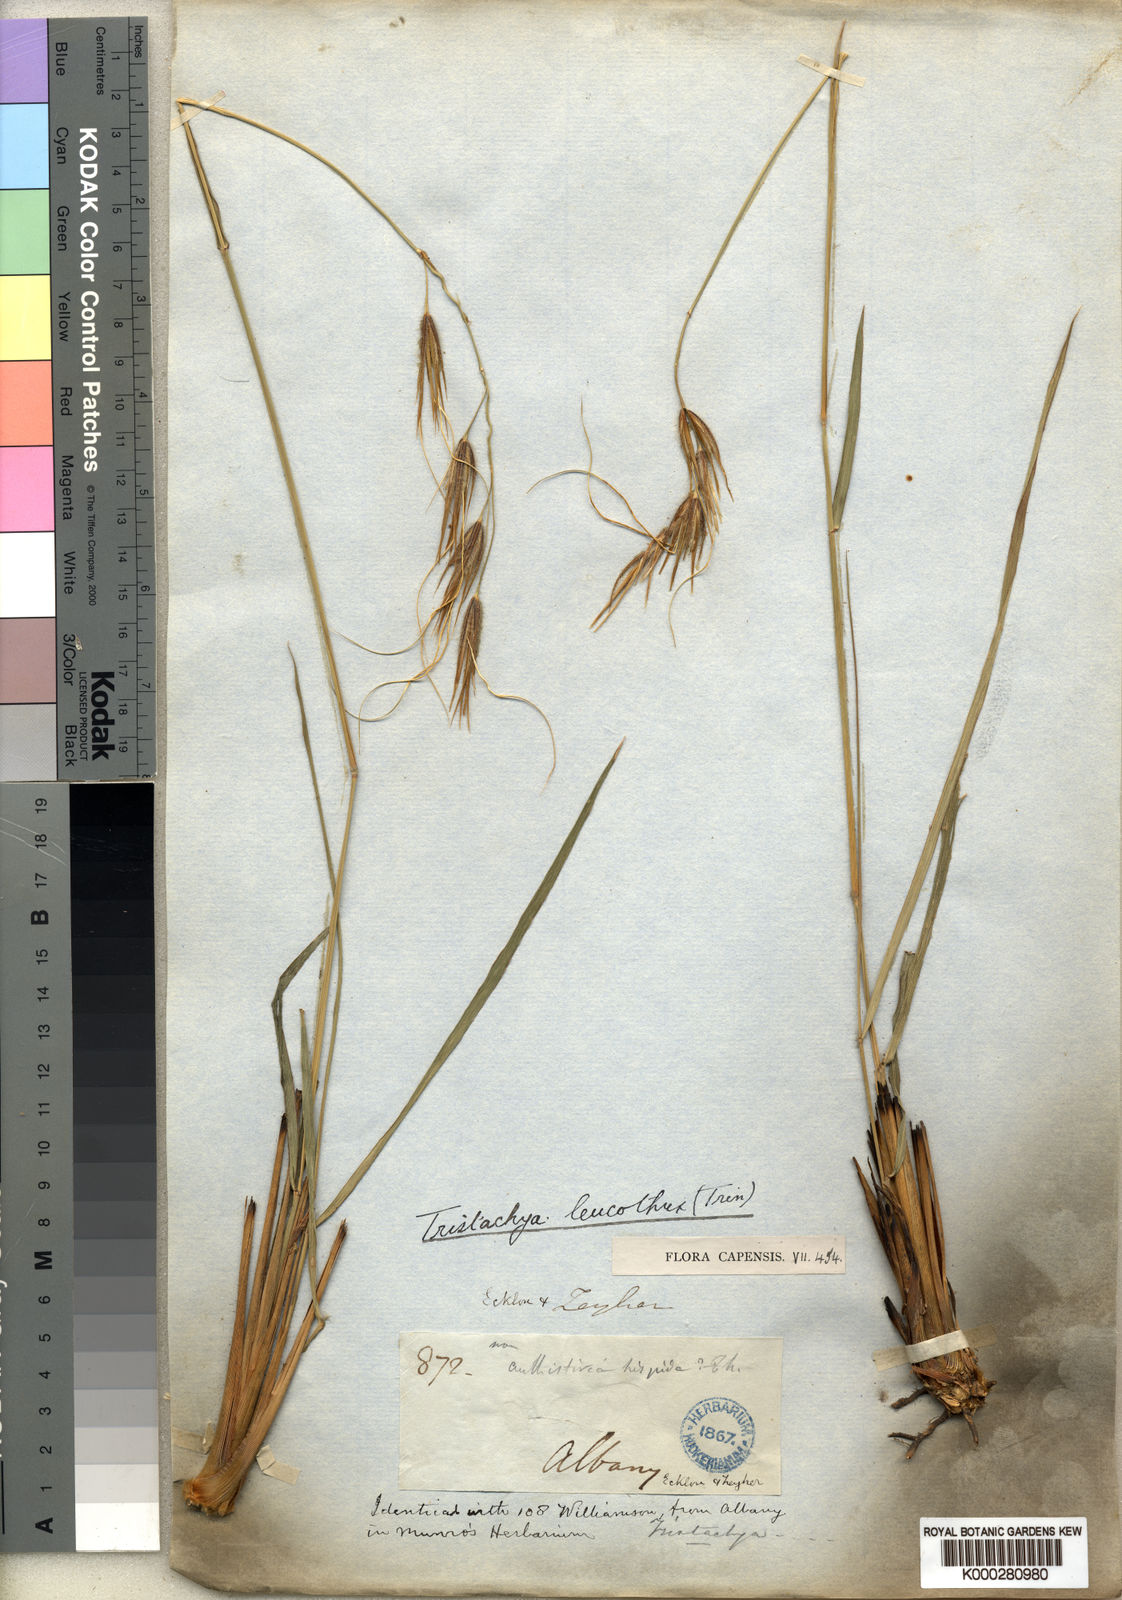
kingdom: Plantae
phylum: Tracheophyta
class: Liliopsida
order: Poales
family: Poaceae
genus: Tristachya
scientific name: Tristachya leucothrix
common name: Trident grass
